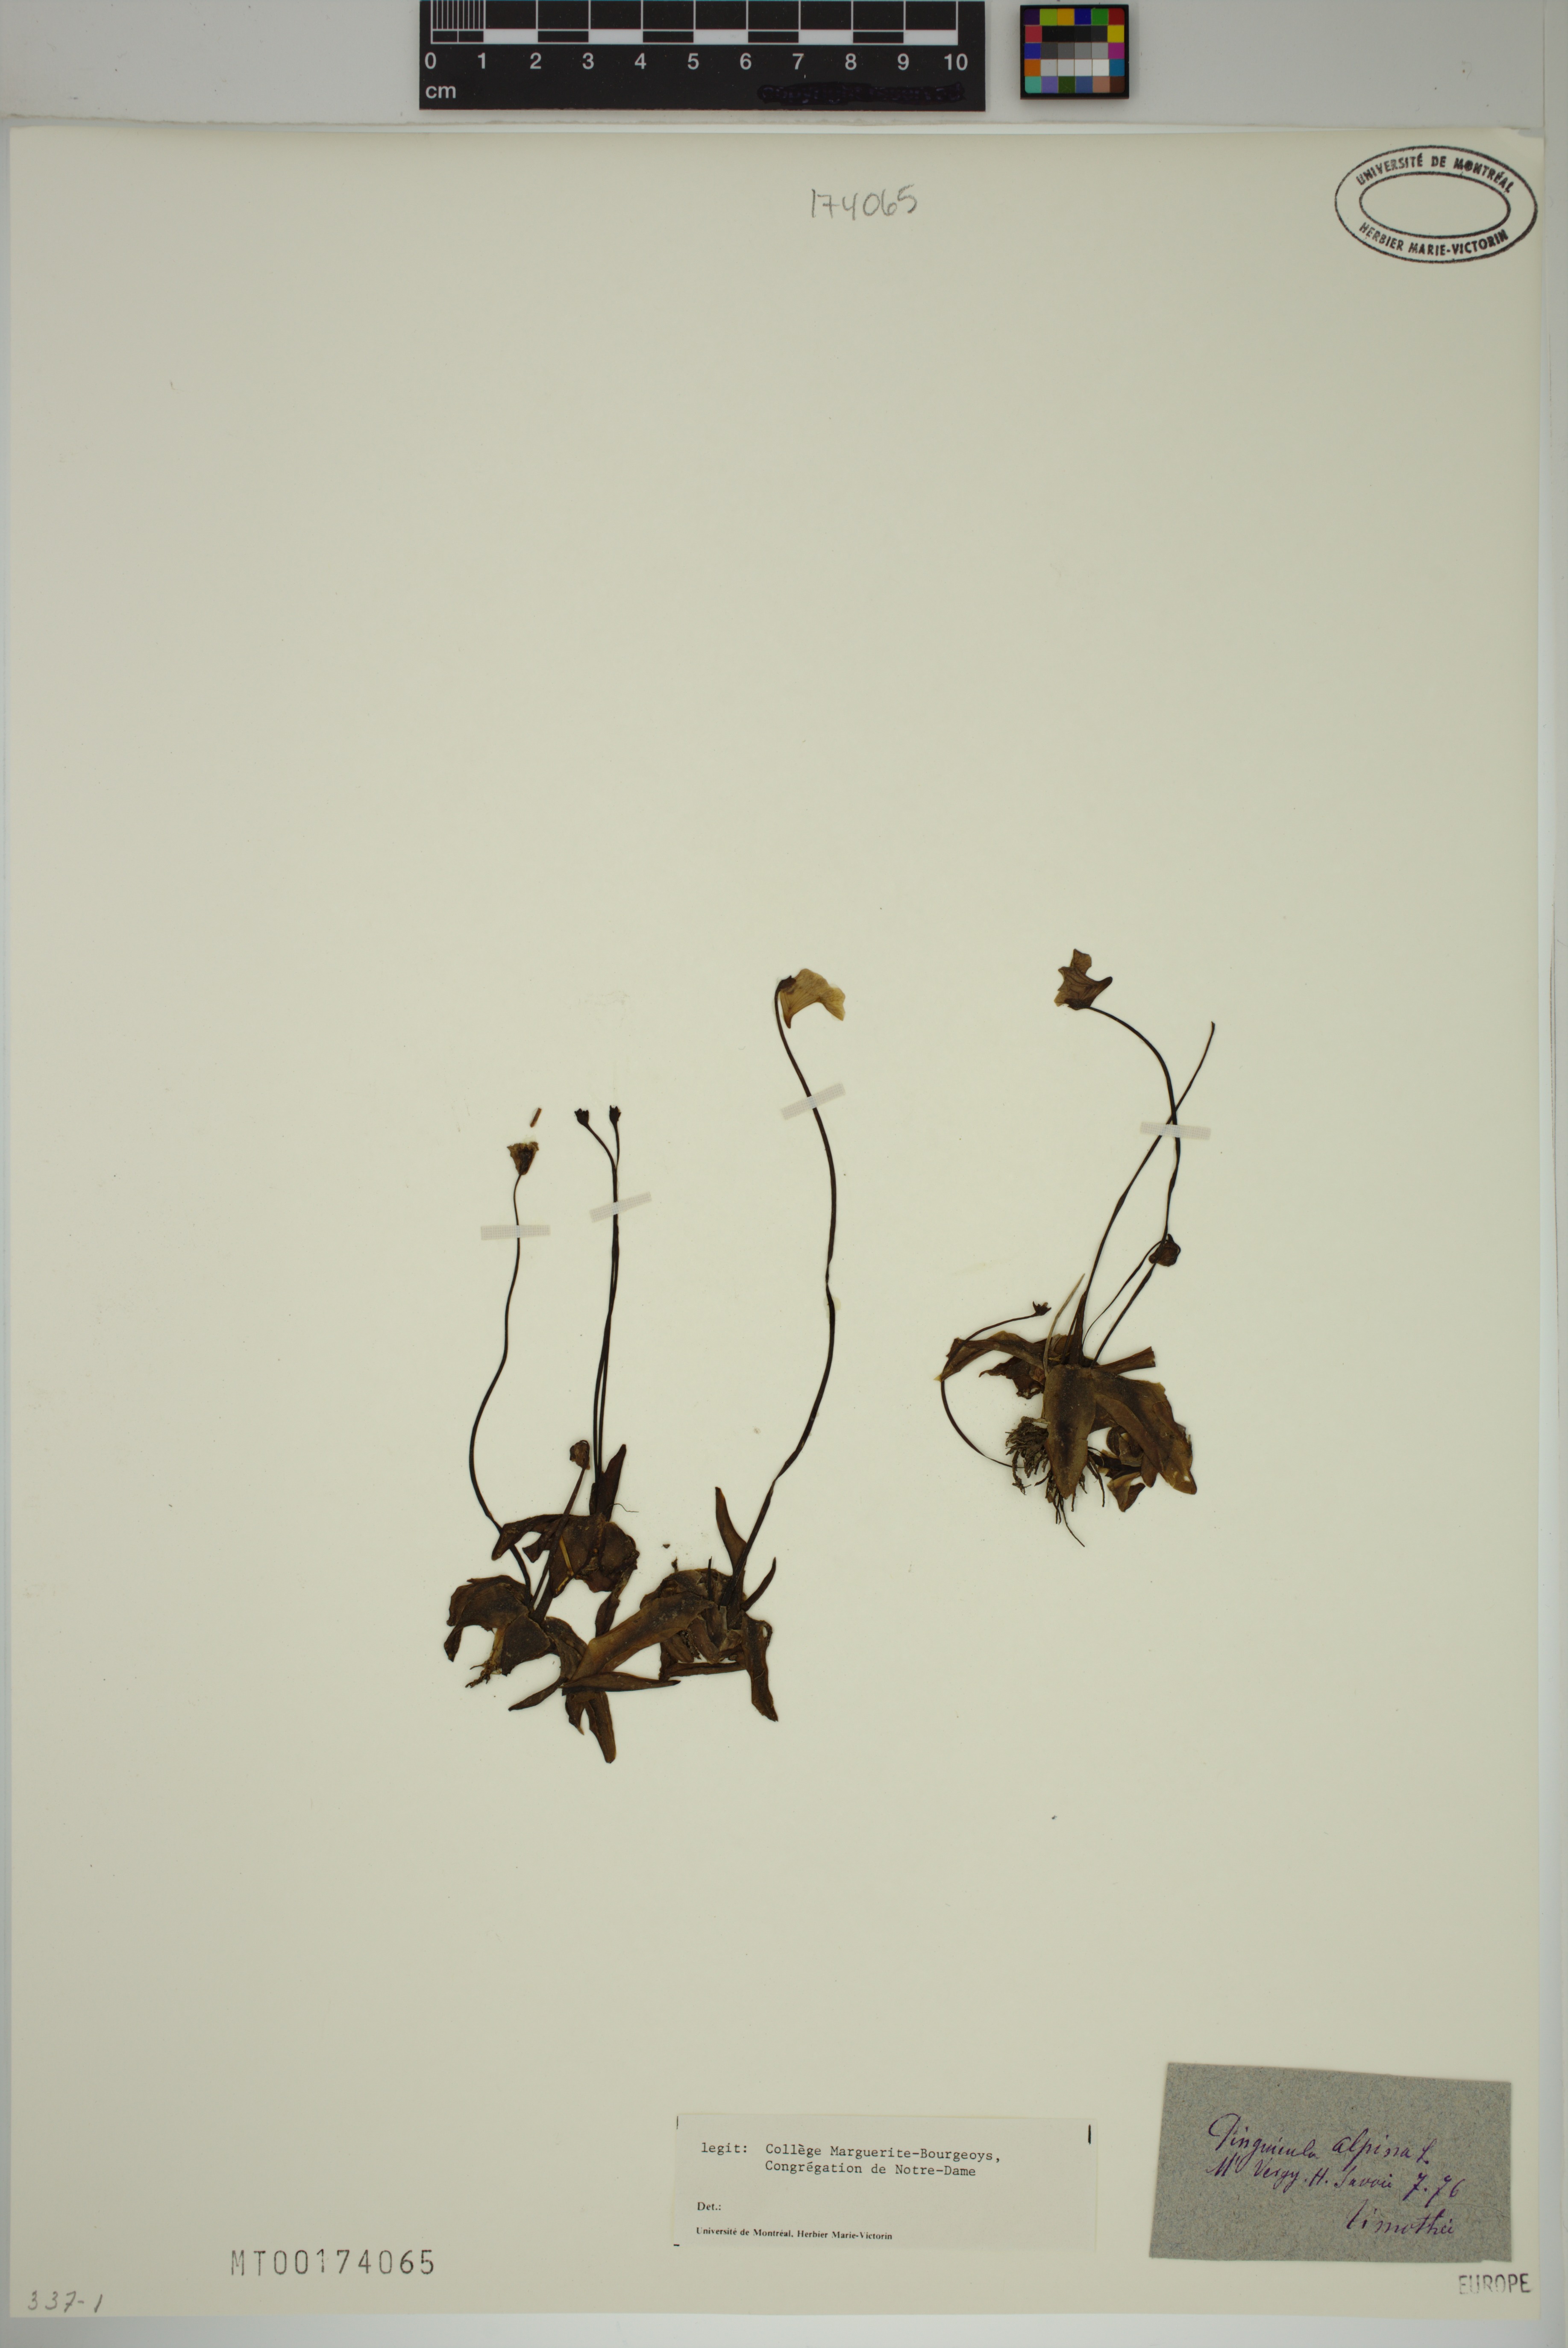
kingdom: Plantae
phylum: Tracheophyta
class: Magnoliopsida
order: Lamiales
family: Lentibulariaceae
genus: Pinguicula
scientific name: Pinguicula alpina
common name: Alpine butterwort
